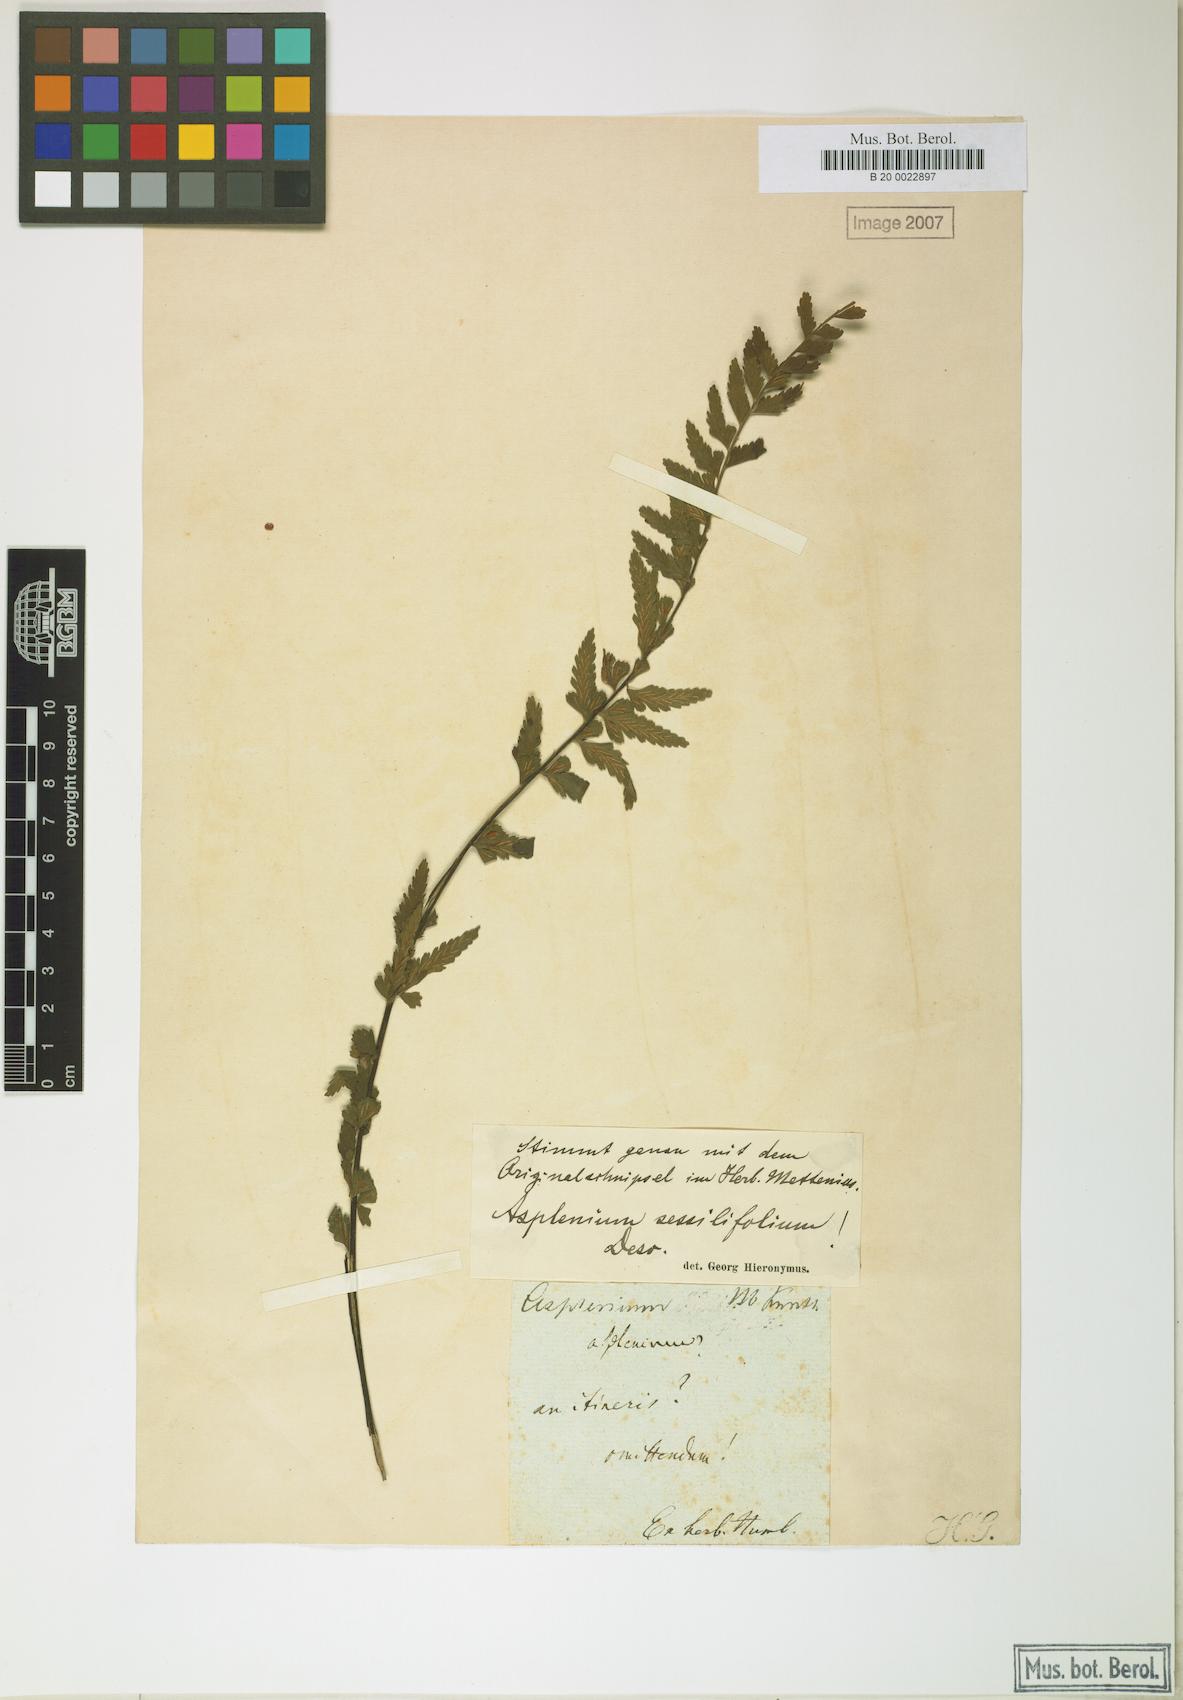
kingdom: Plantae
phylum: Tracheophyta
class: Polypodiopsida
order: Polypodiales
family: Aspleniaceae
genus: Asplenium
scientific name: Asplenium sessilifolium
